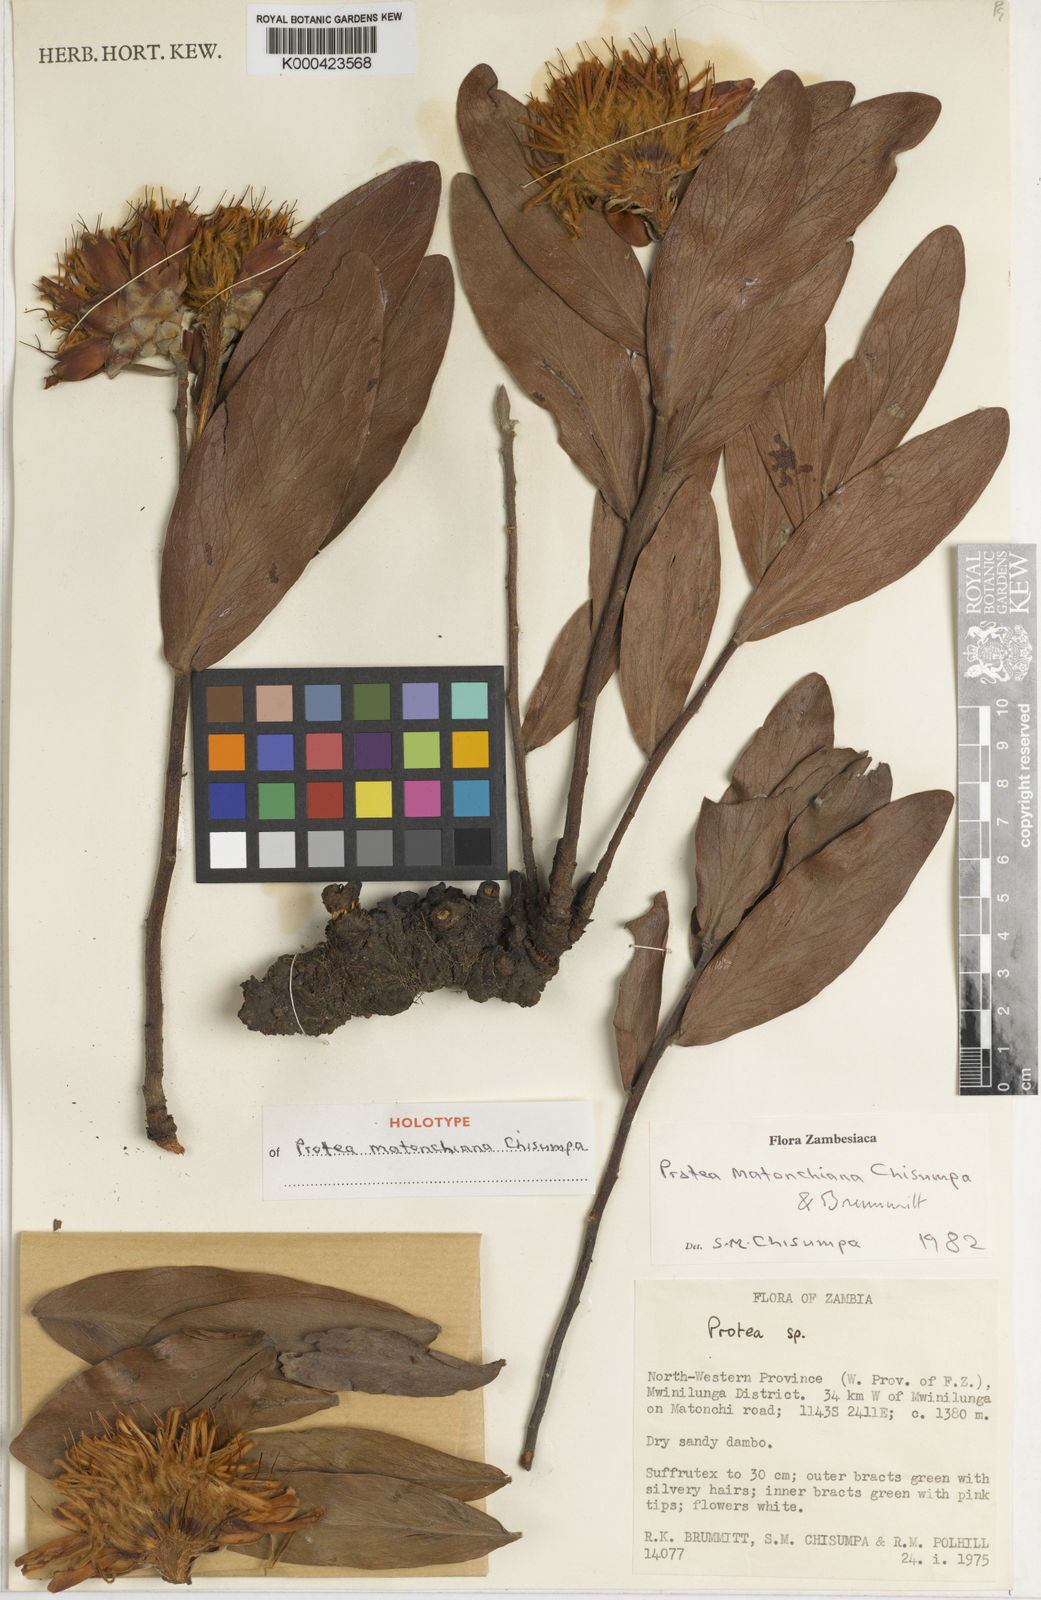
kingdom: Plantae
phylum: Tracheophyta
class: Magnoliopsida
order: Proteales
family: Proteaceae
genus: Protea
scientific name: Protea matonchiana
